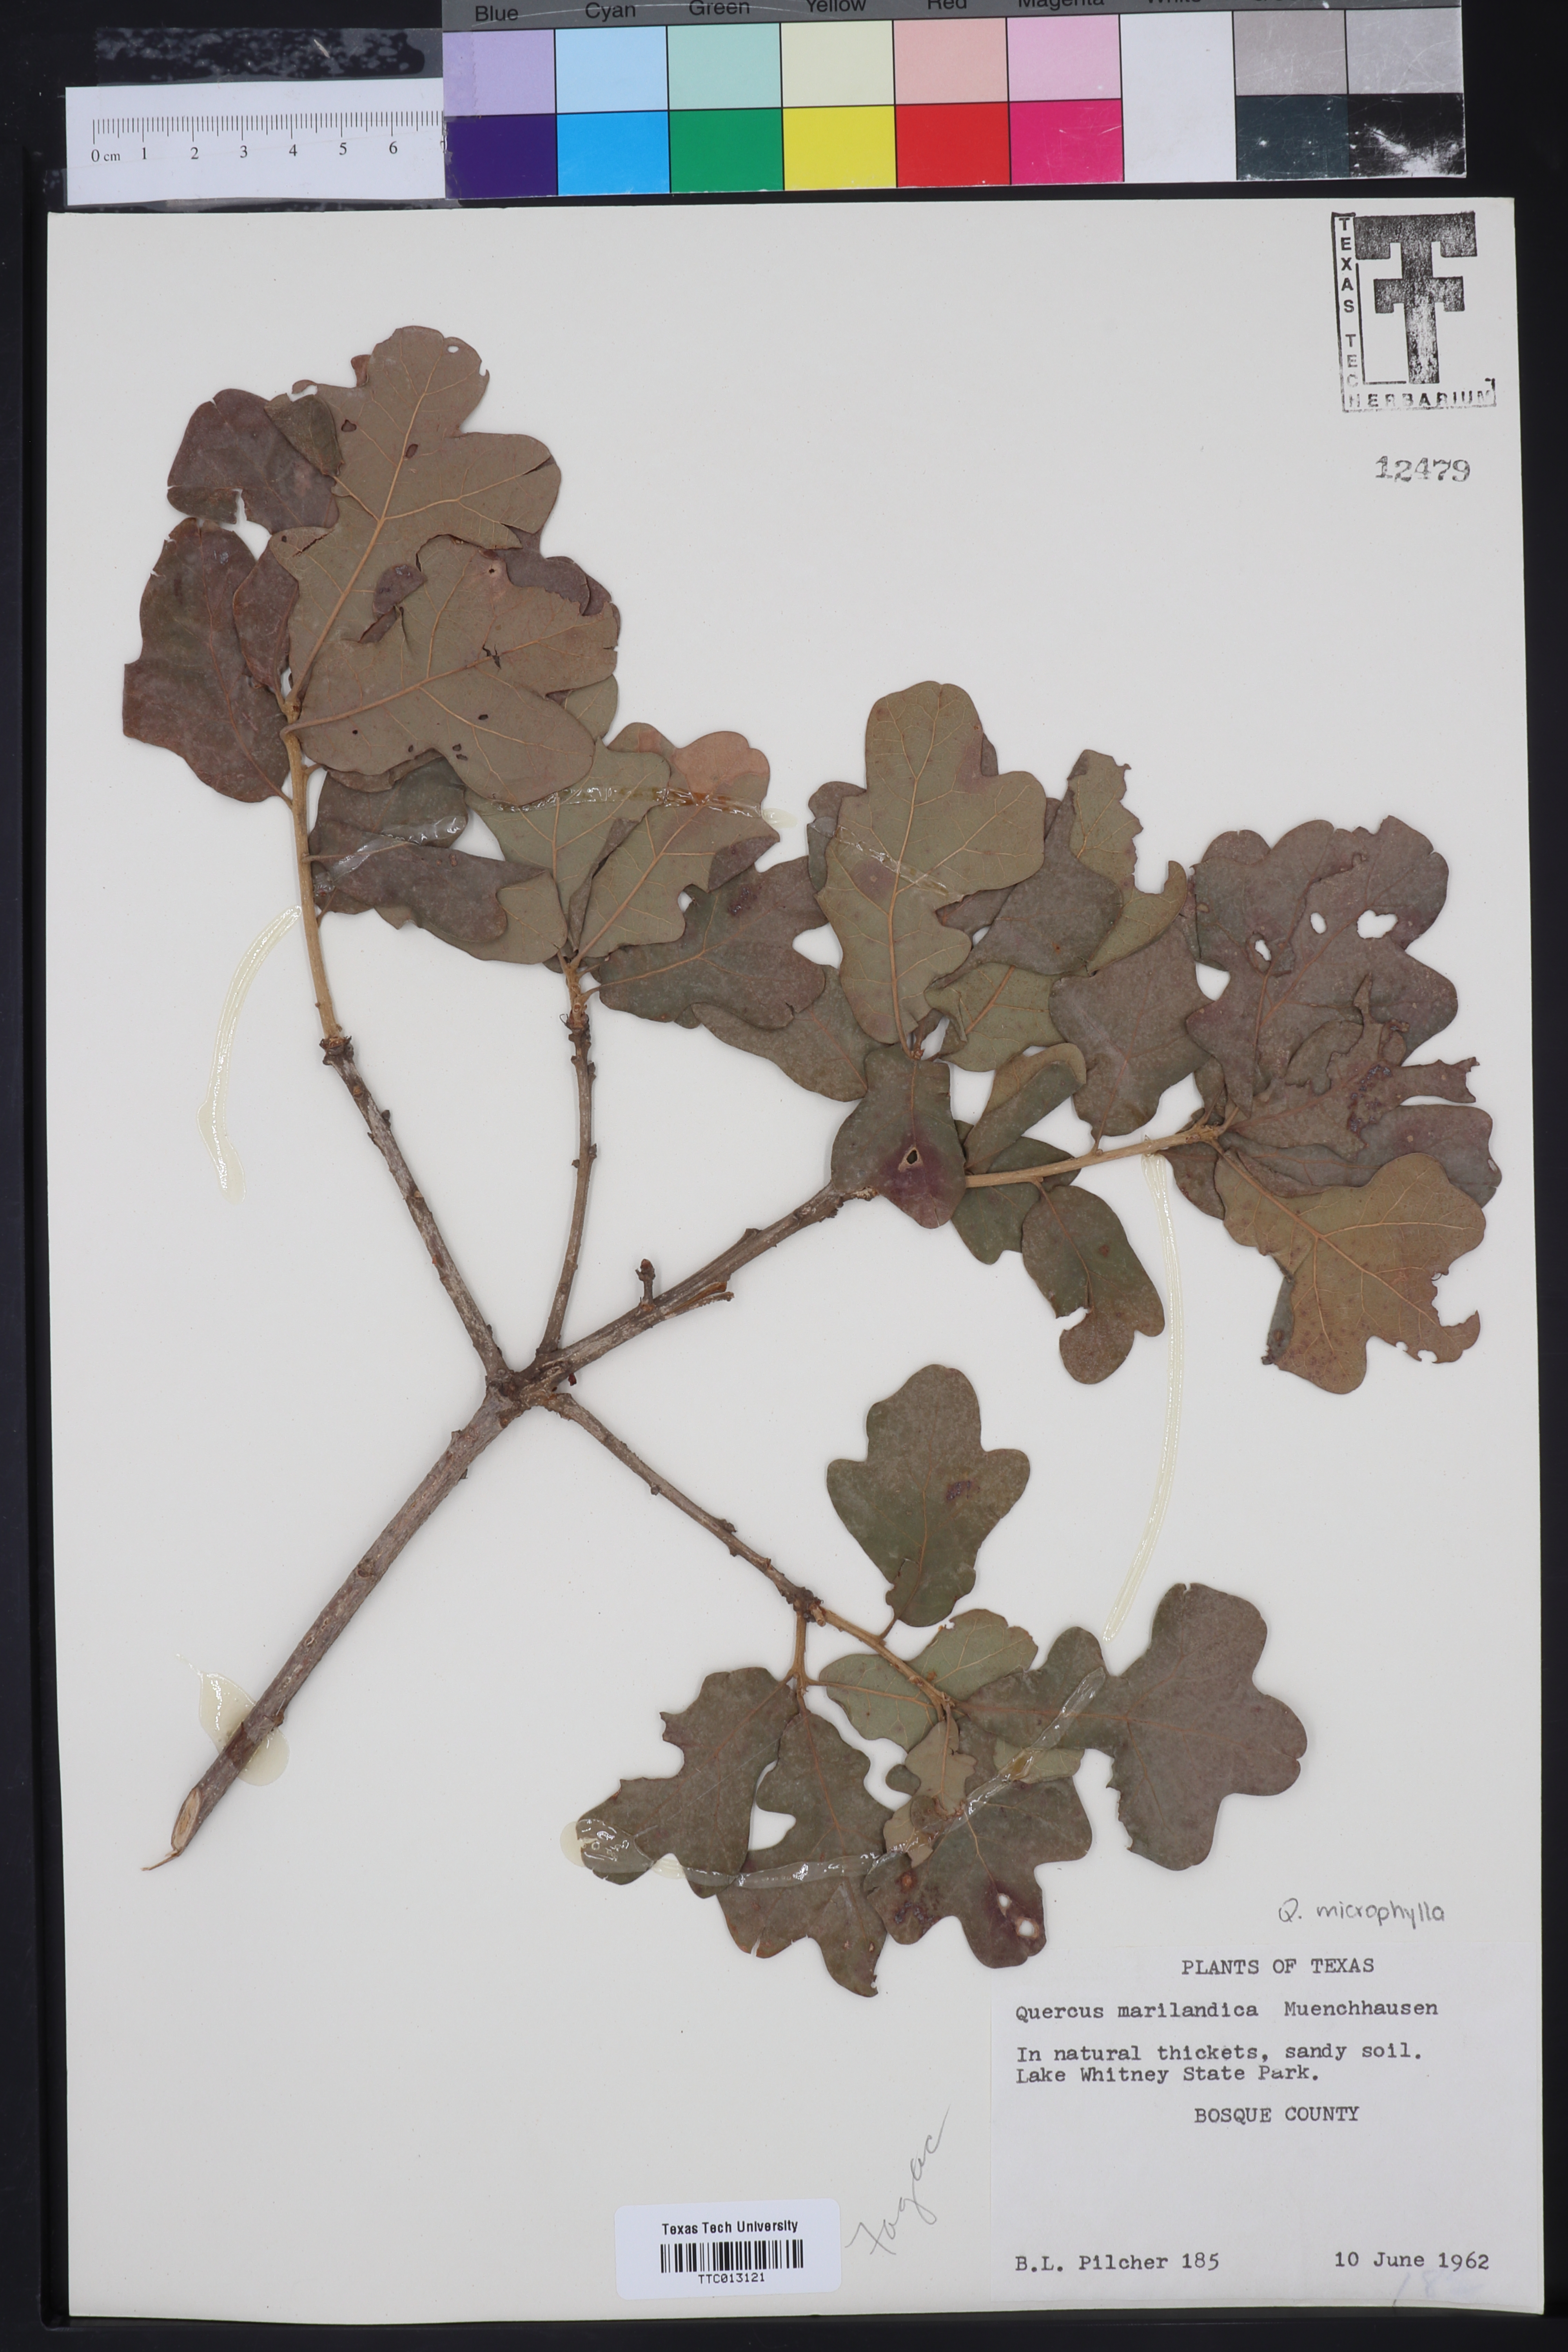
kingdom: Plantae
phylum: Tracheophyta
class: Magnoliopsida
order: Fagales
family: Fagaceae
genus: Quercus
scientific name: Quercus marilandica
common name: Blackjack oak
